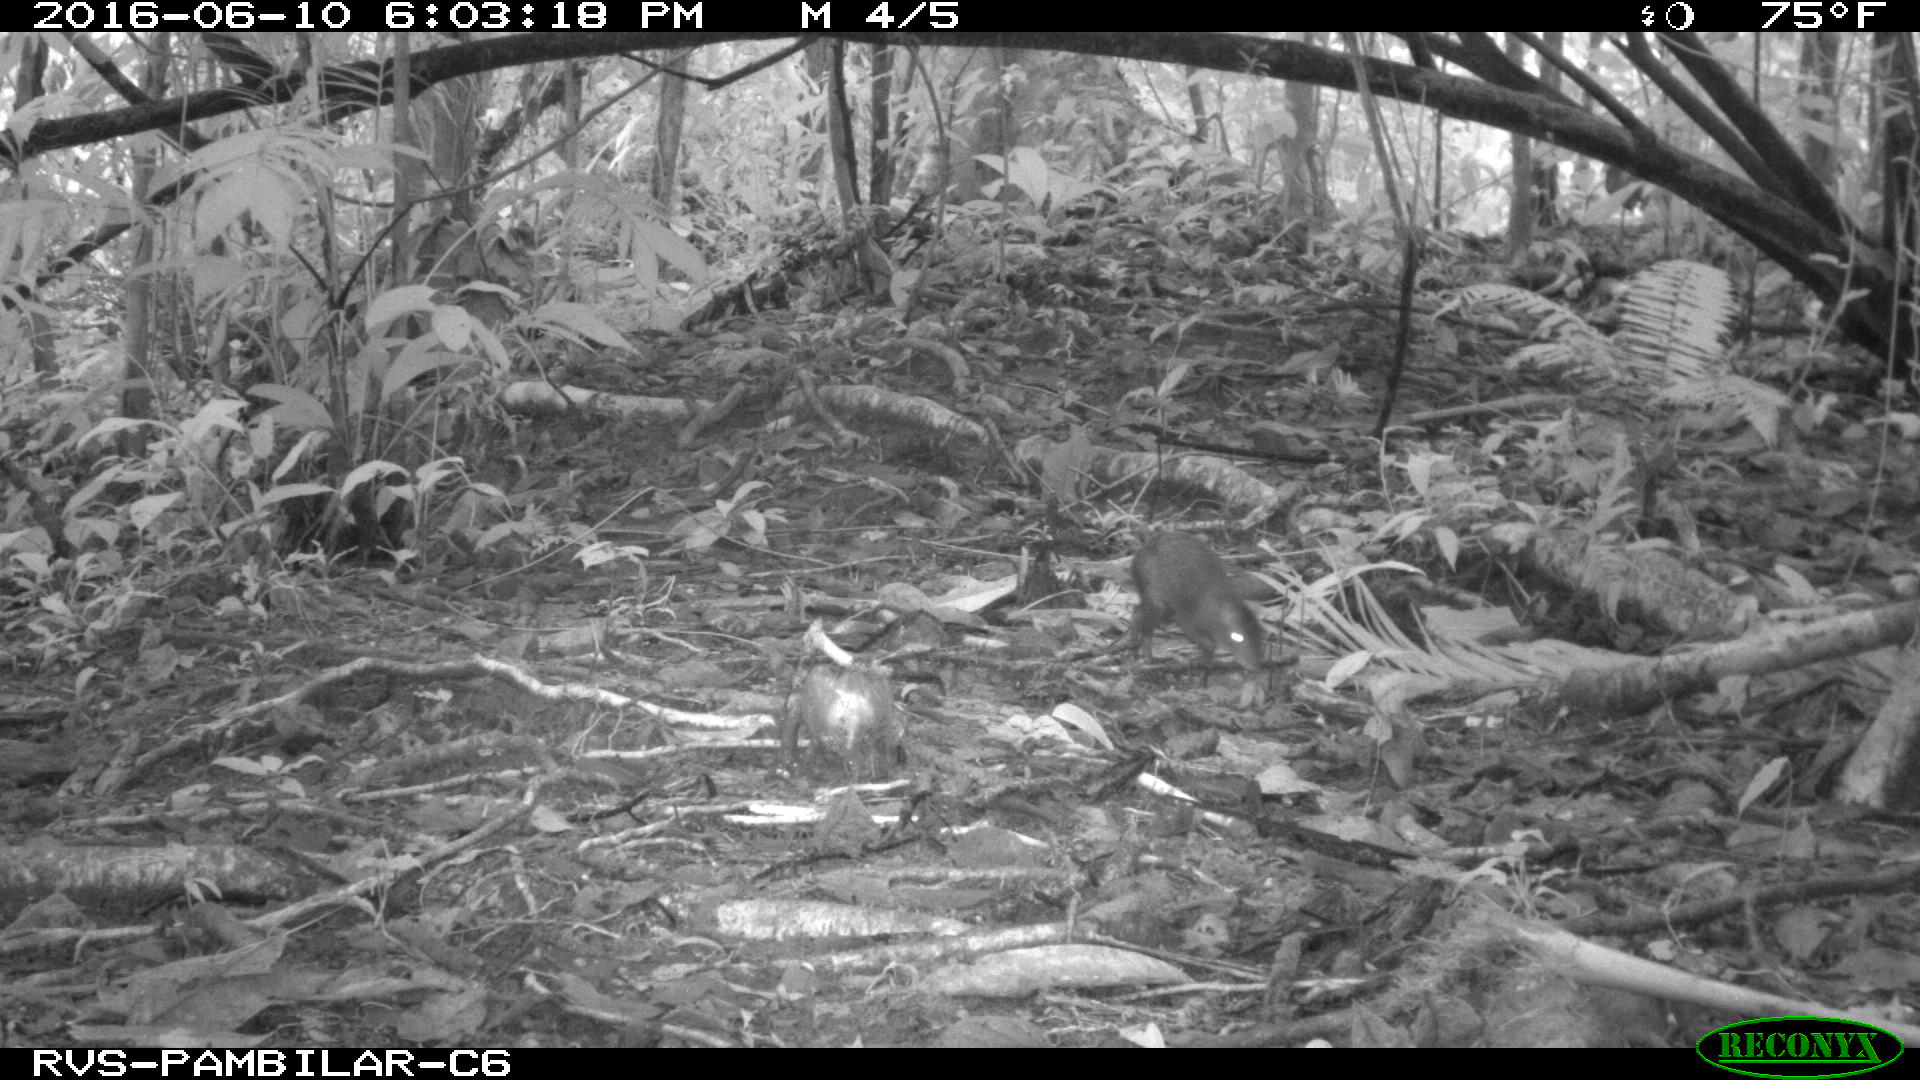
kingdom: Animalia
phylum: Chordata
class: Mammalia
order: Rodentia
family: Dasyproctidae
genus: Dasyprocta
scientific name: Dasyprocta punctata
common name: Central american agouti
